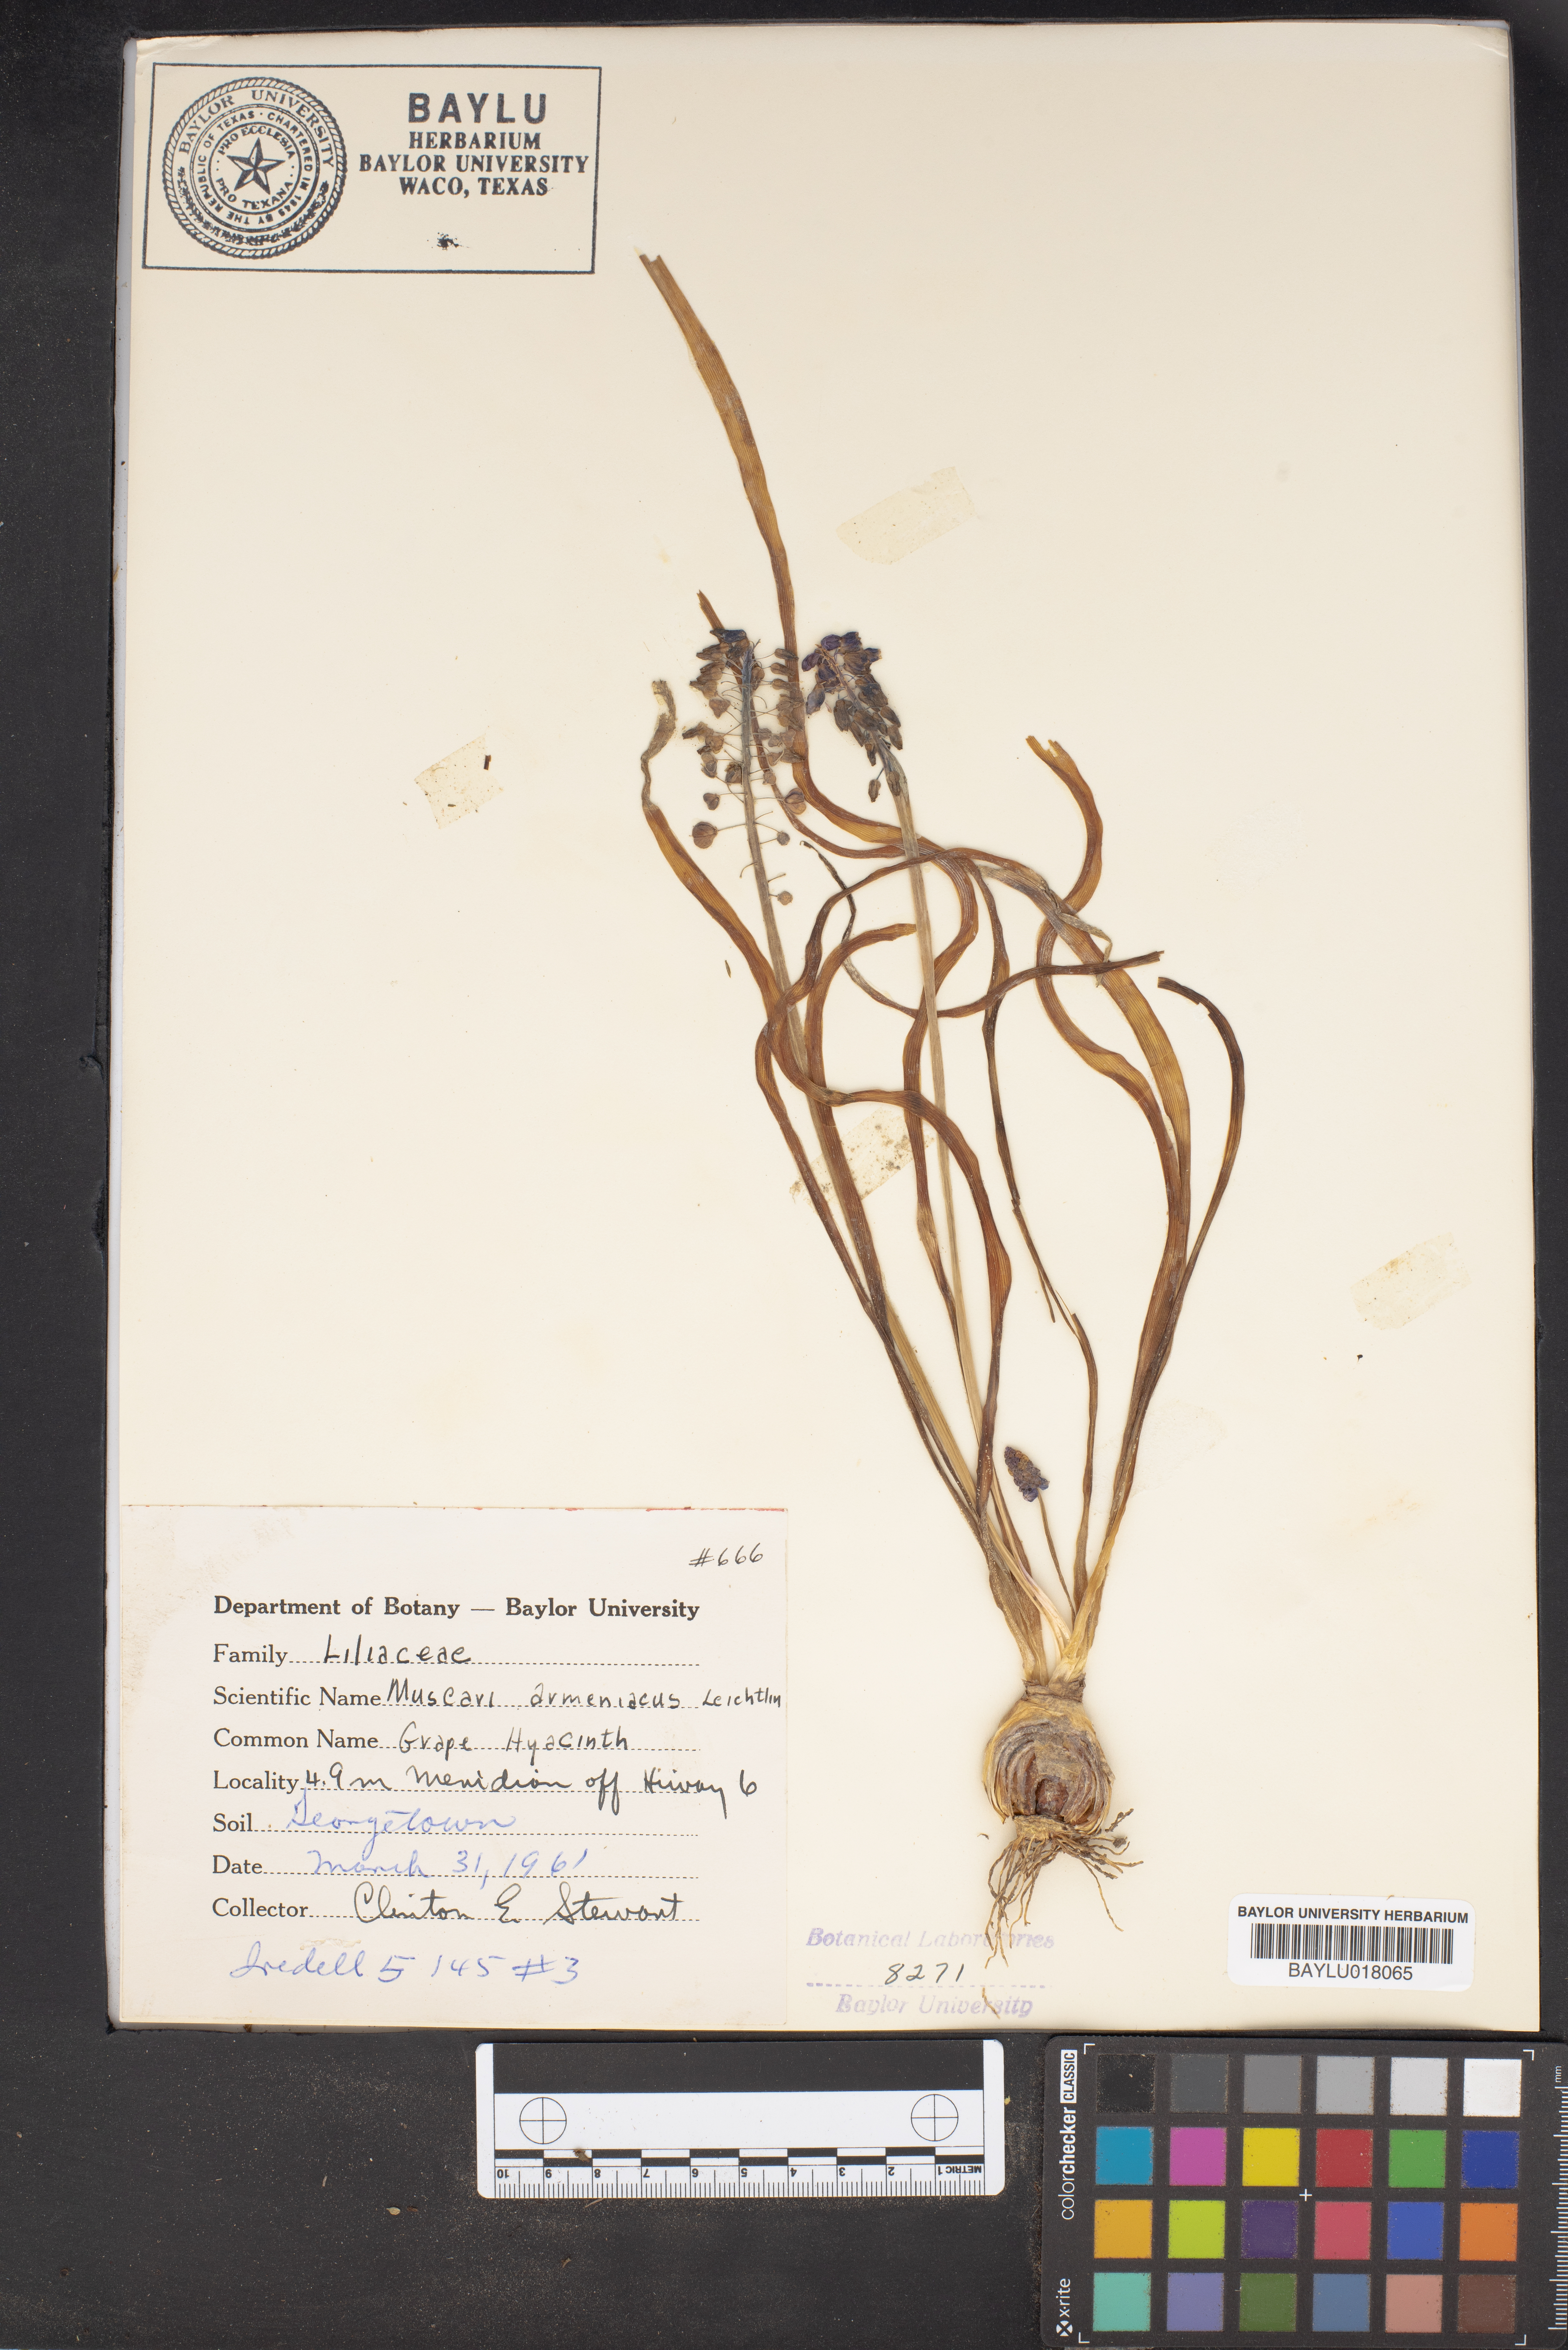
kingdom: Plantae
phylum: Tracheophyta
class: Liliopsida
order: Asparagales
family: Asparagaceae
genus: Muscari
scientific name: Muscari armeniacum
